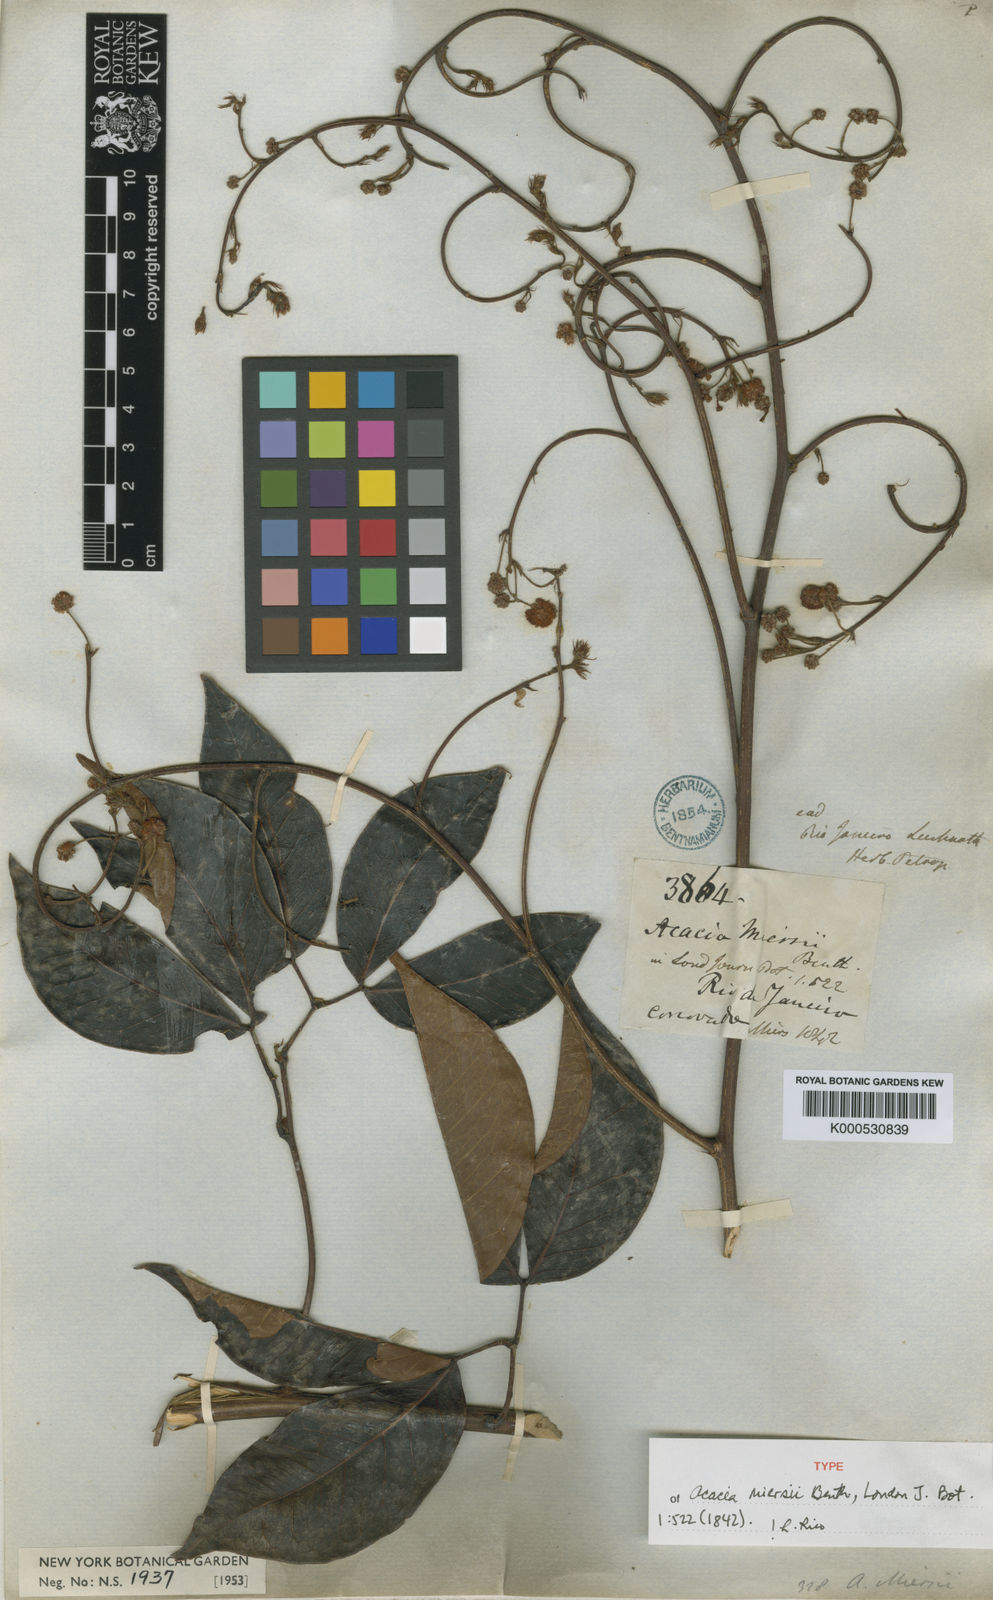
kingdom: Plantae
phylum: Tracheophyta
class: Magnoliopsida
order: Fabales
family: Fabaceae
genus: Parasenegalia
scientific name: Parasenegalia miersii
